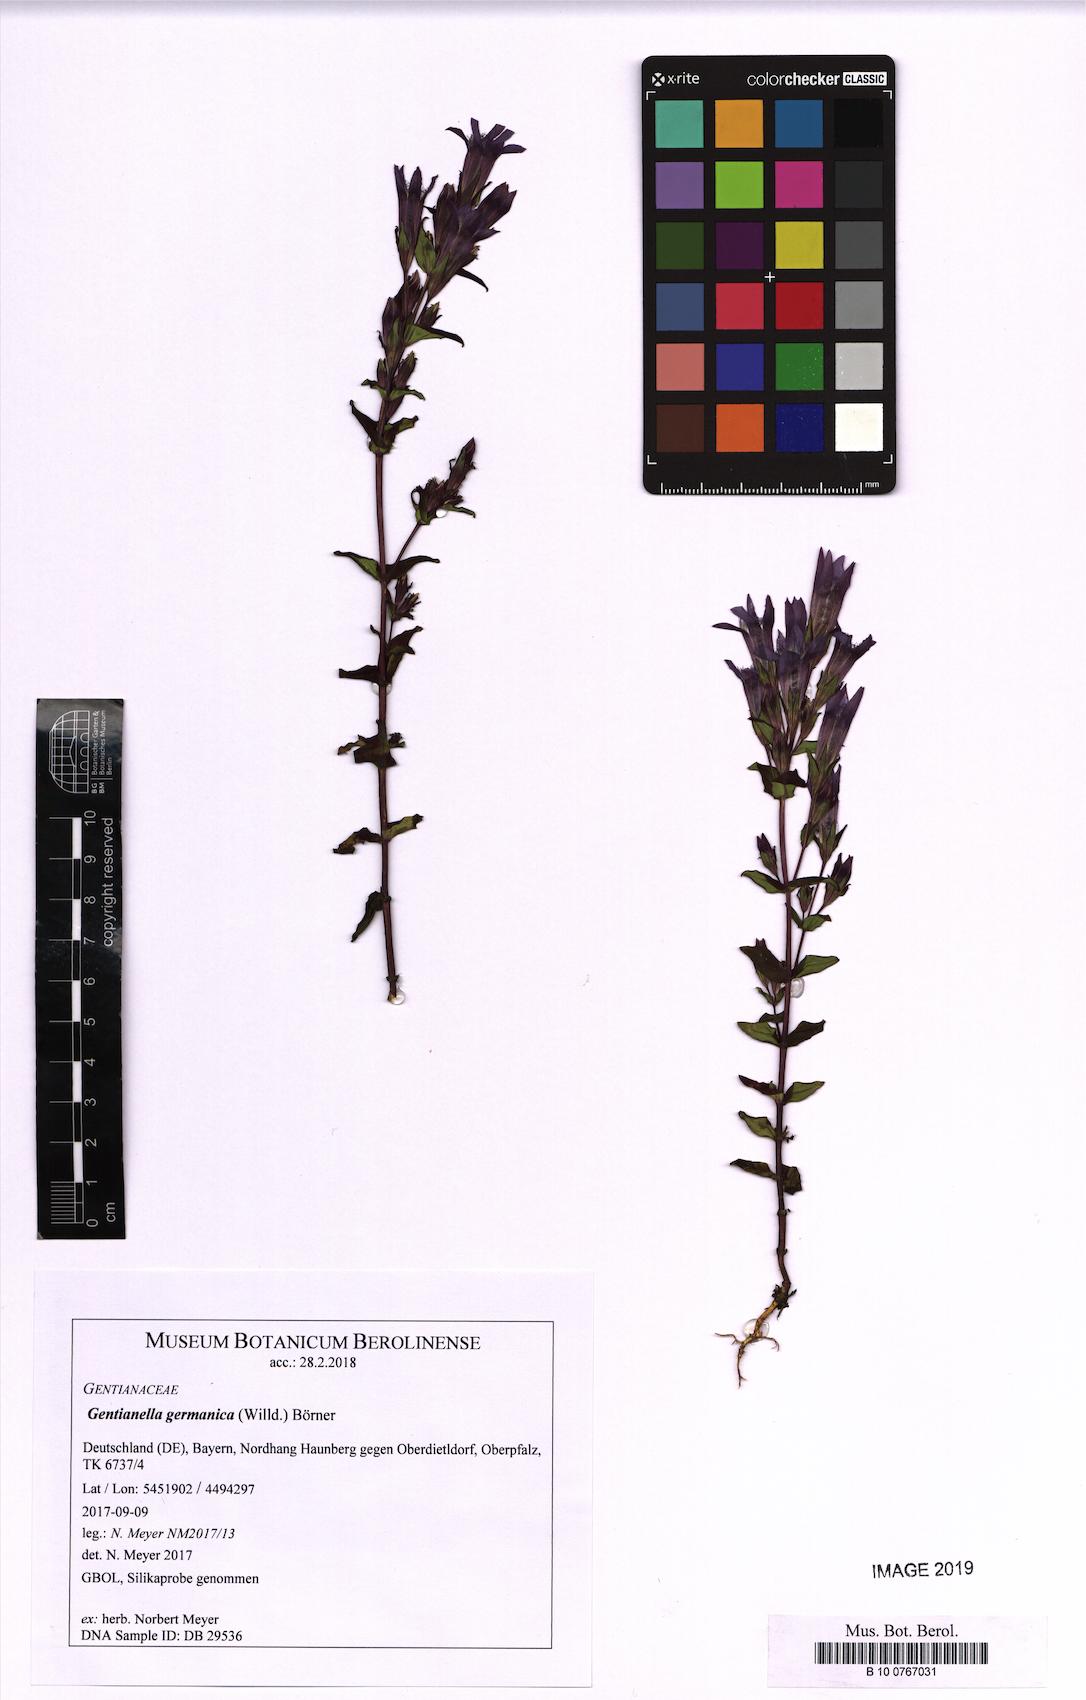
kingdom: Plantae
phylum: Tracheophyta
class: Magnoliopsida
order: Gentianales
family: Gentianaceae
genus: Gentianella
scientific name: Gentianella germanica
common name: Chiltern-gentian
